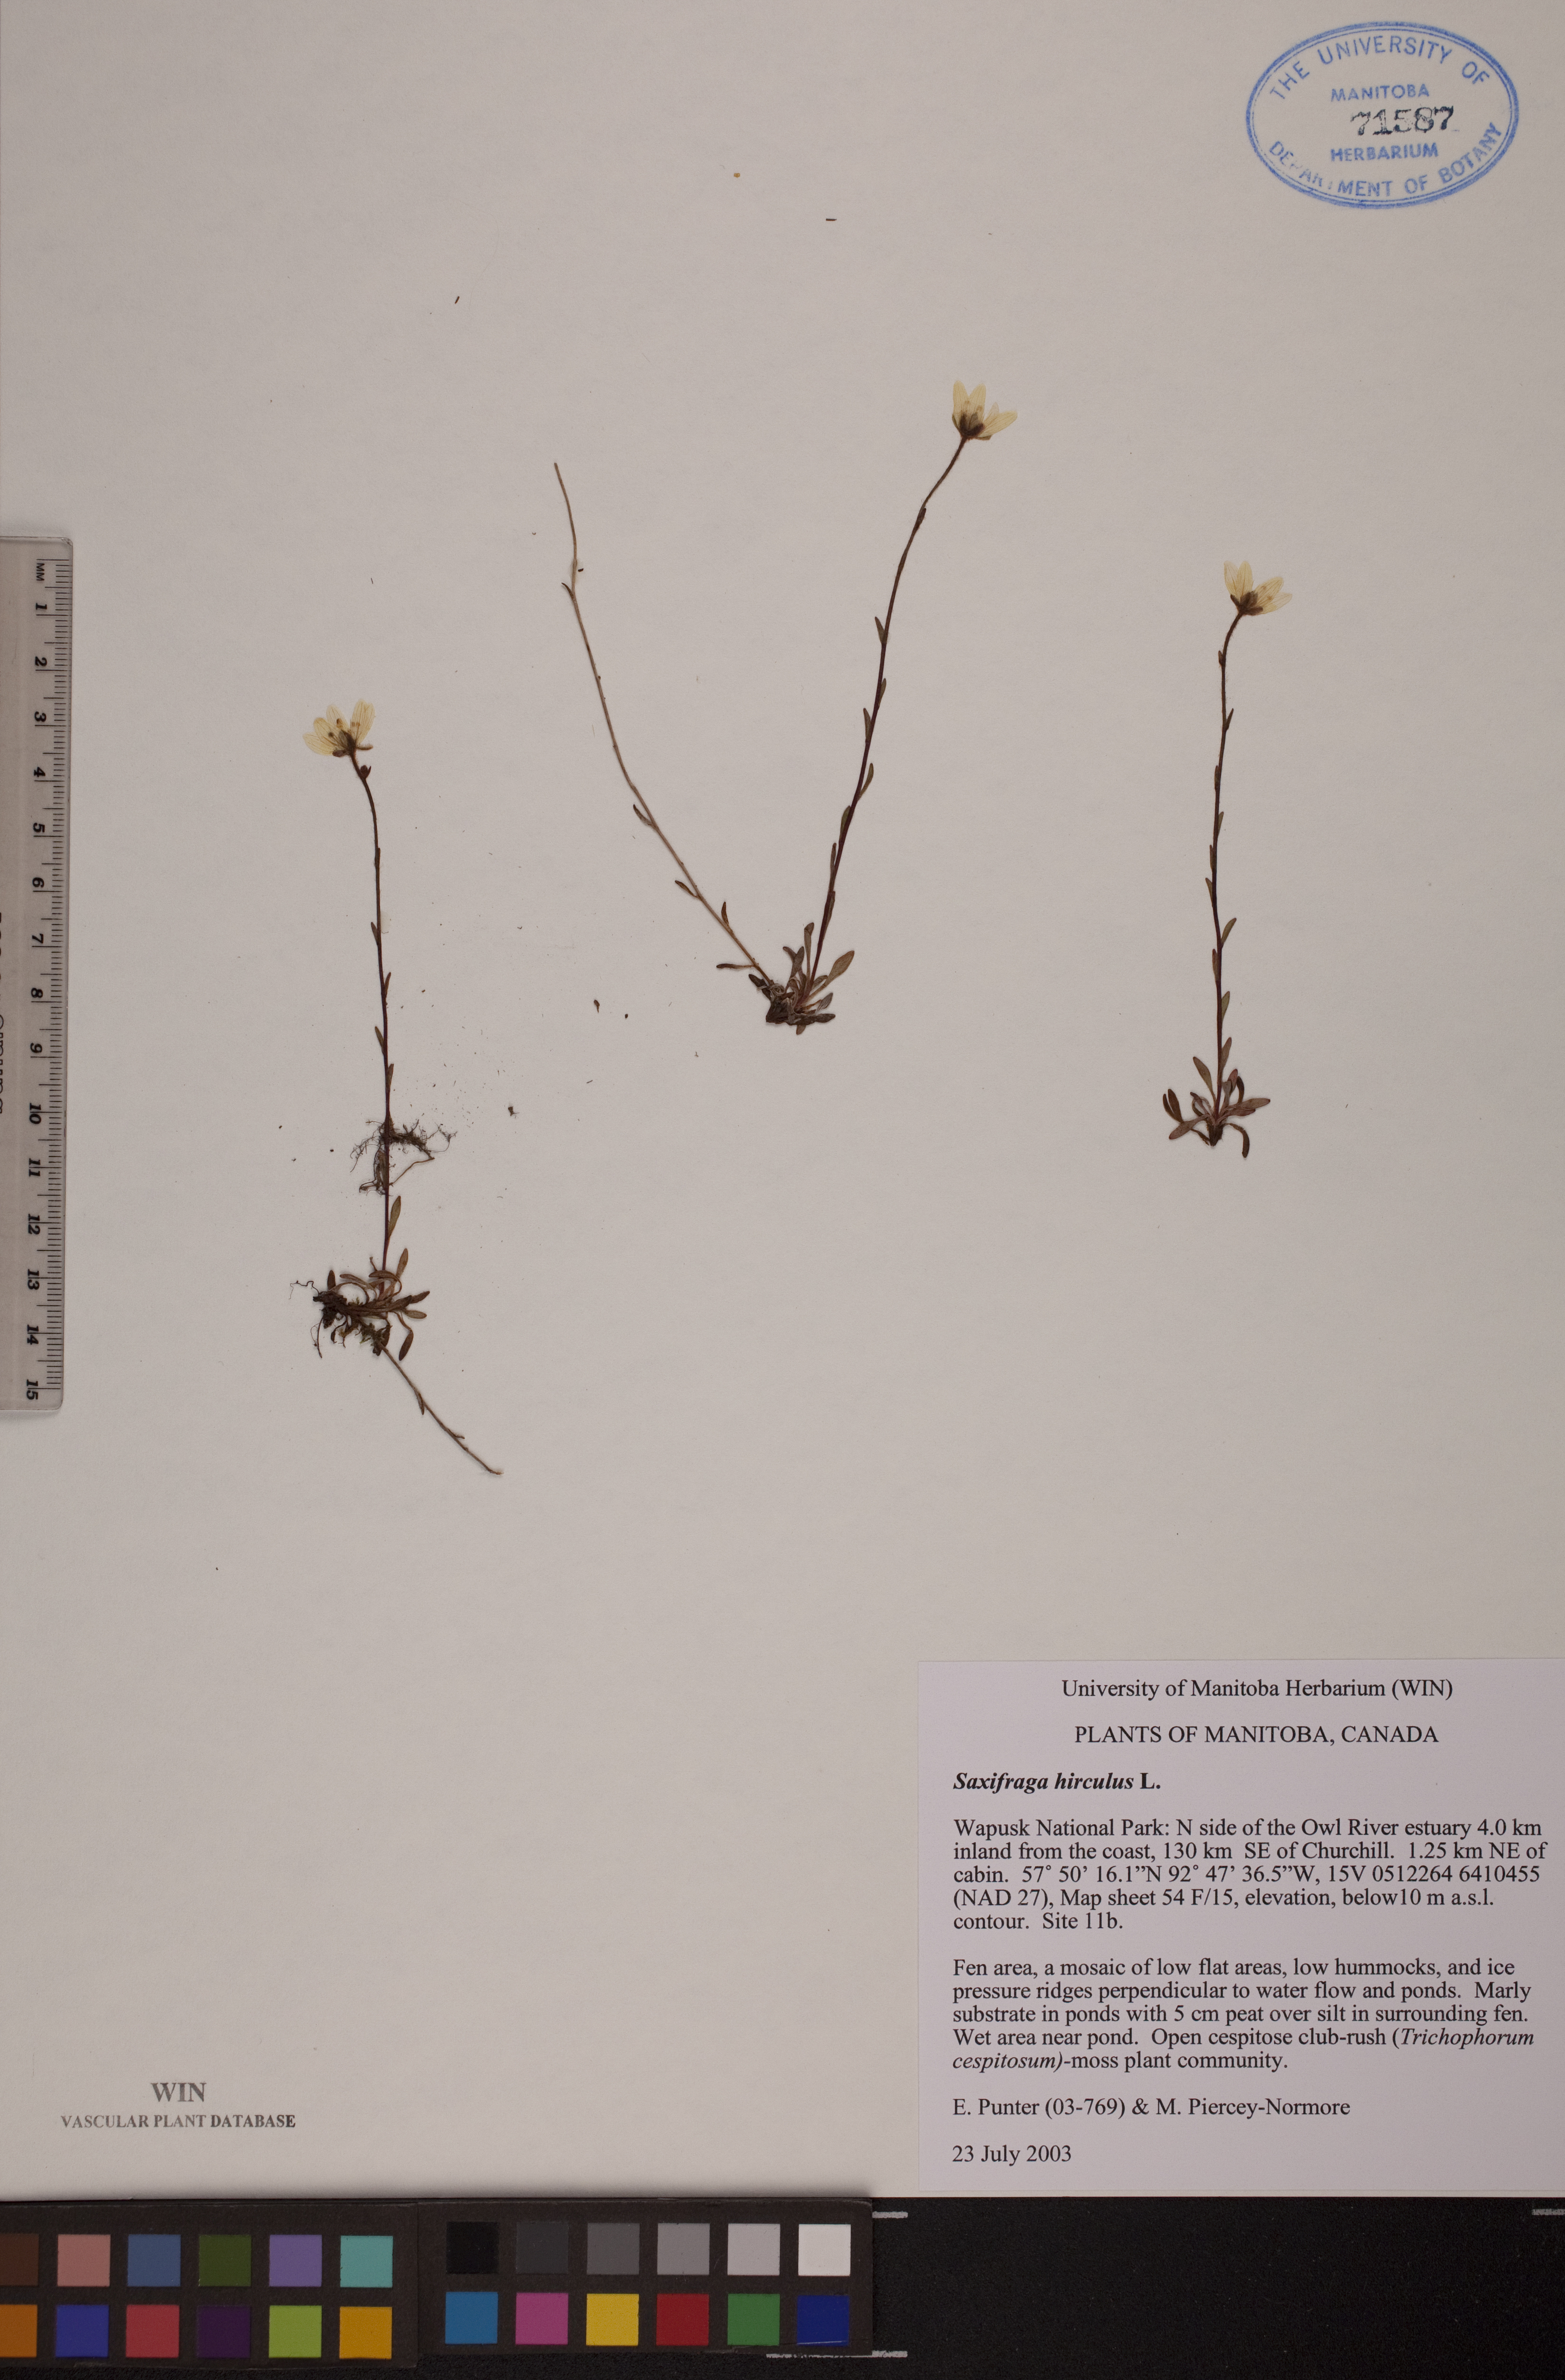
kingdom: Plantae
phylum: Tracheophyta
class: Magnoliopsida
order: Saxifragales
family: Saxifragaceae
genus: Saxifraga
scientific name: Saxifraga hirculus
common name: Yellow marsh saxifrage
